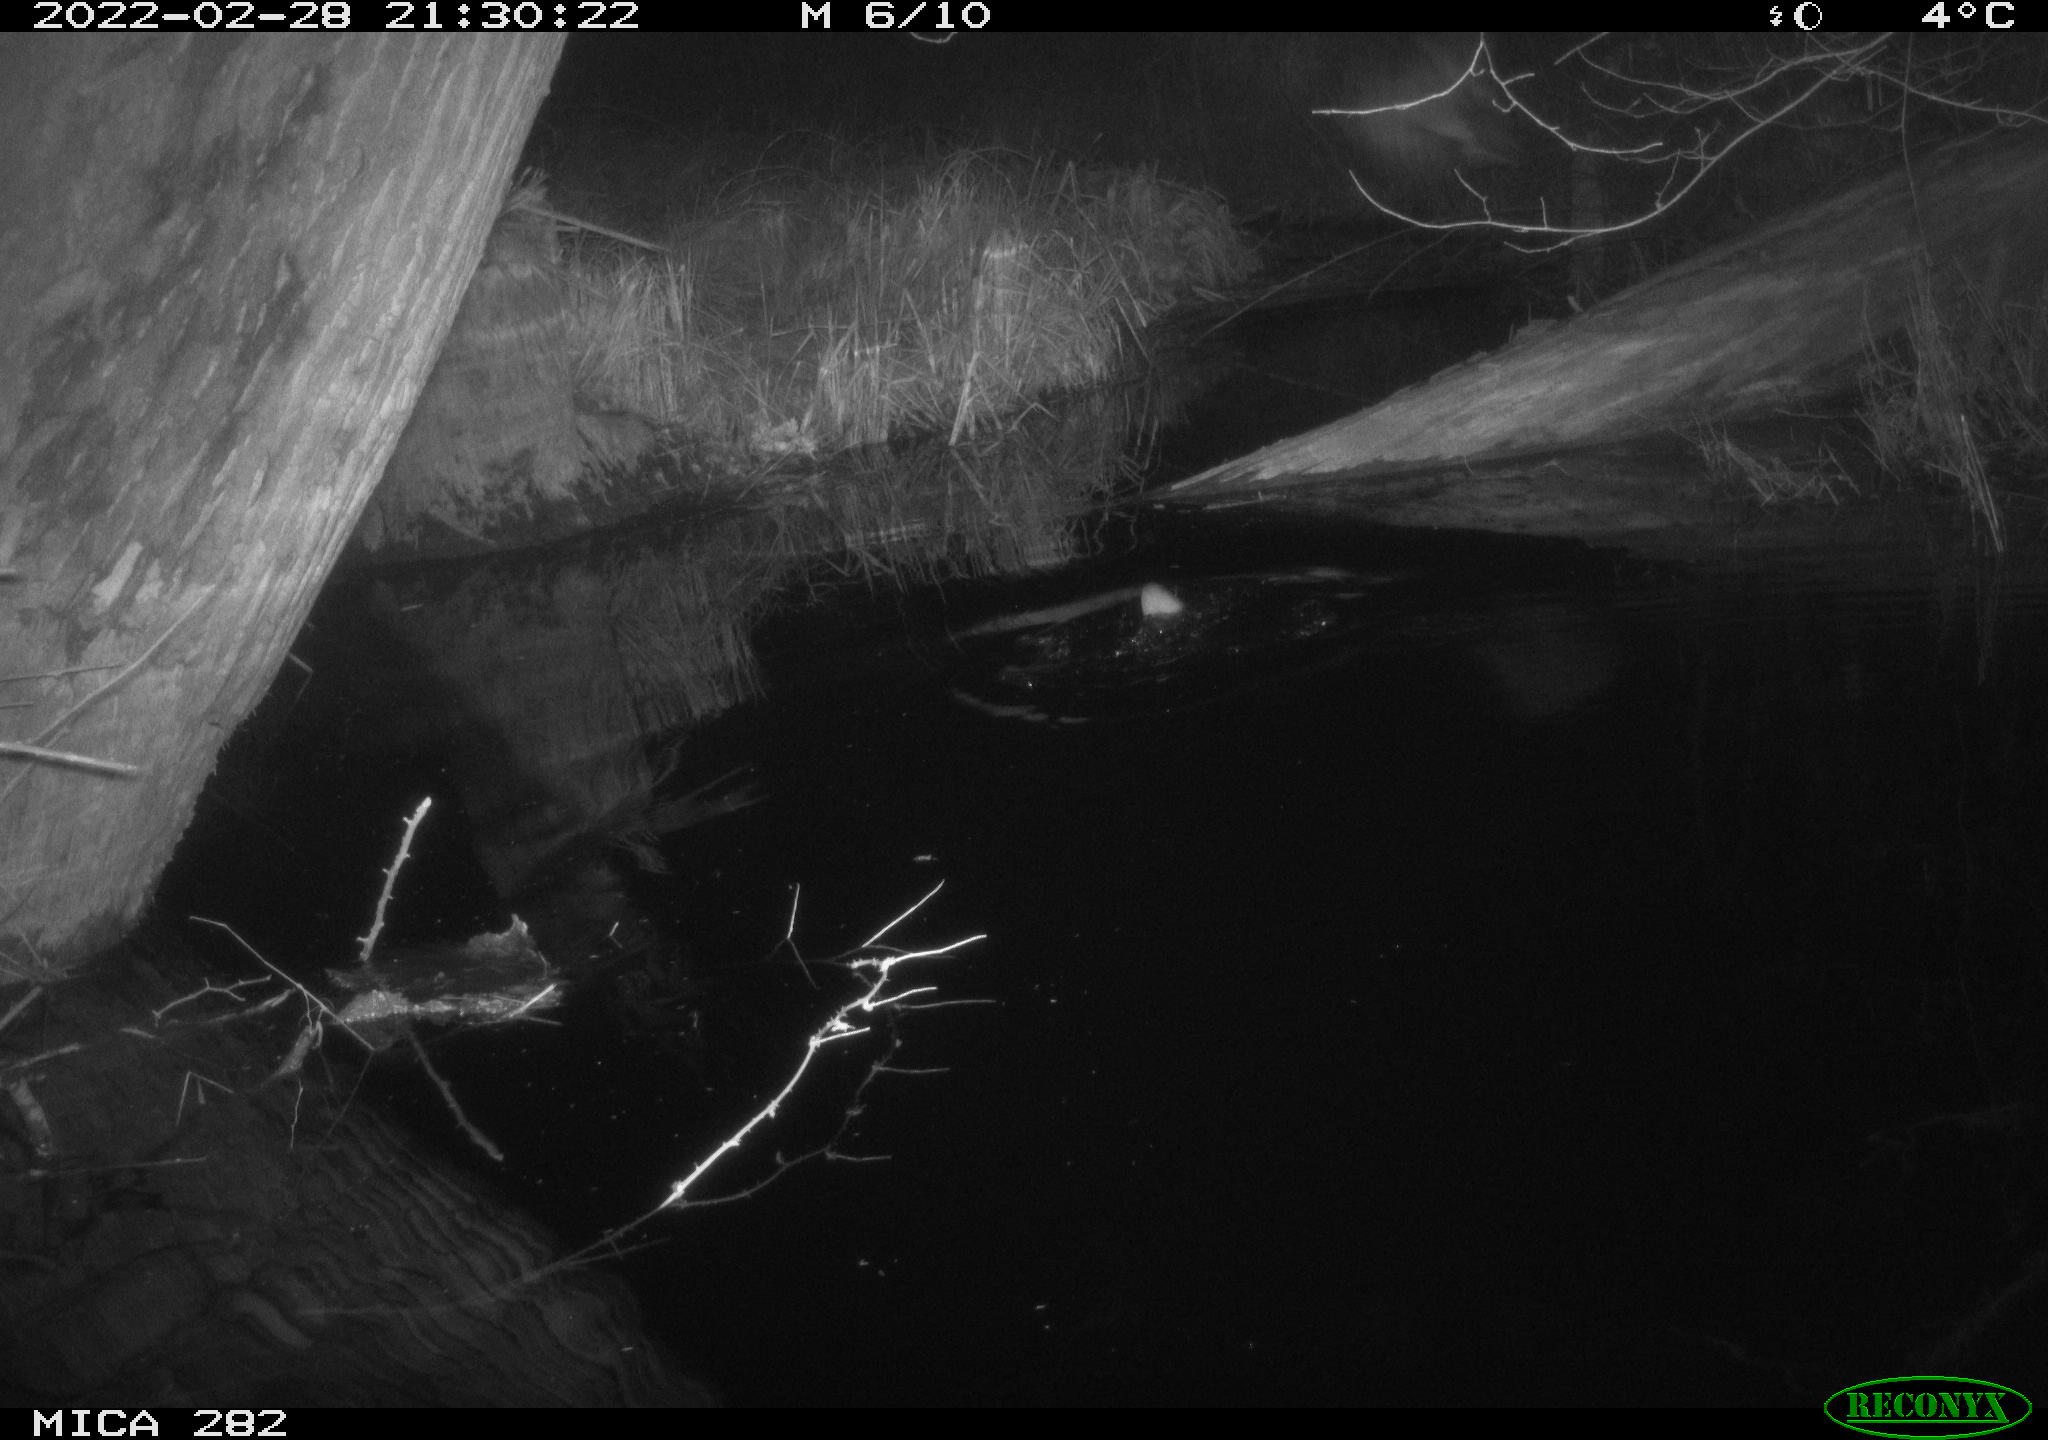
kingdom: Animalia
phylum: Chordata
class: Mammalia
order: Rodentia
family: Castoridae
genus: Castor
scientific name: Castor fiber
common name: Eurasian beaver
